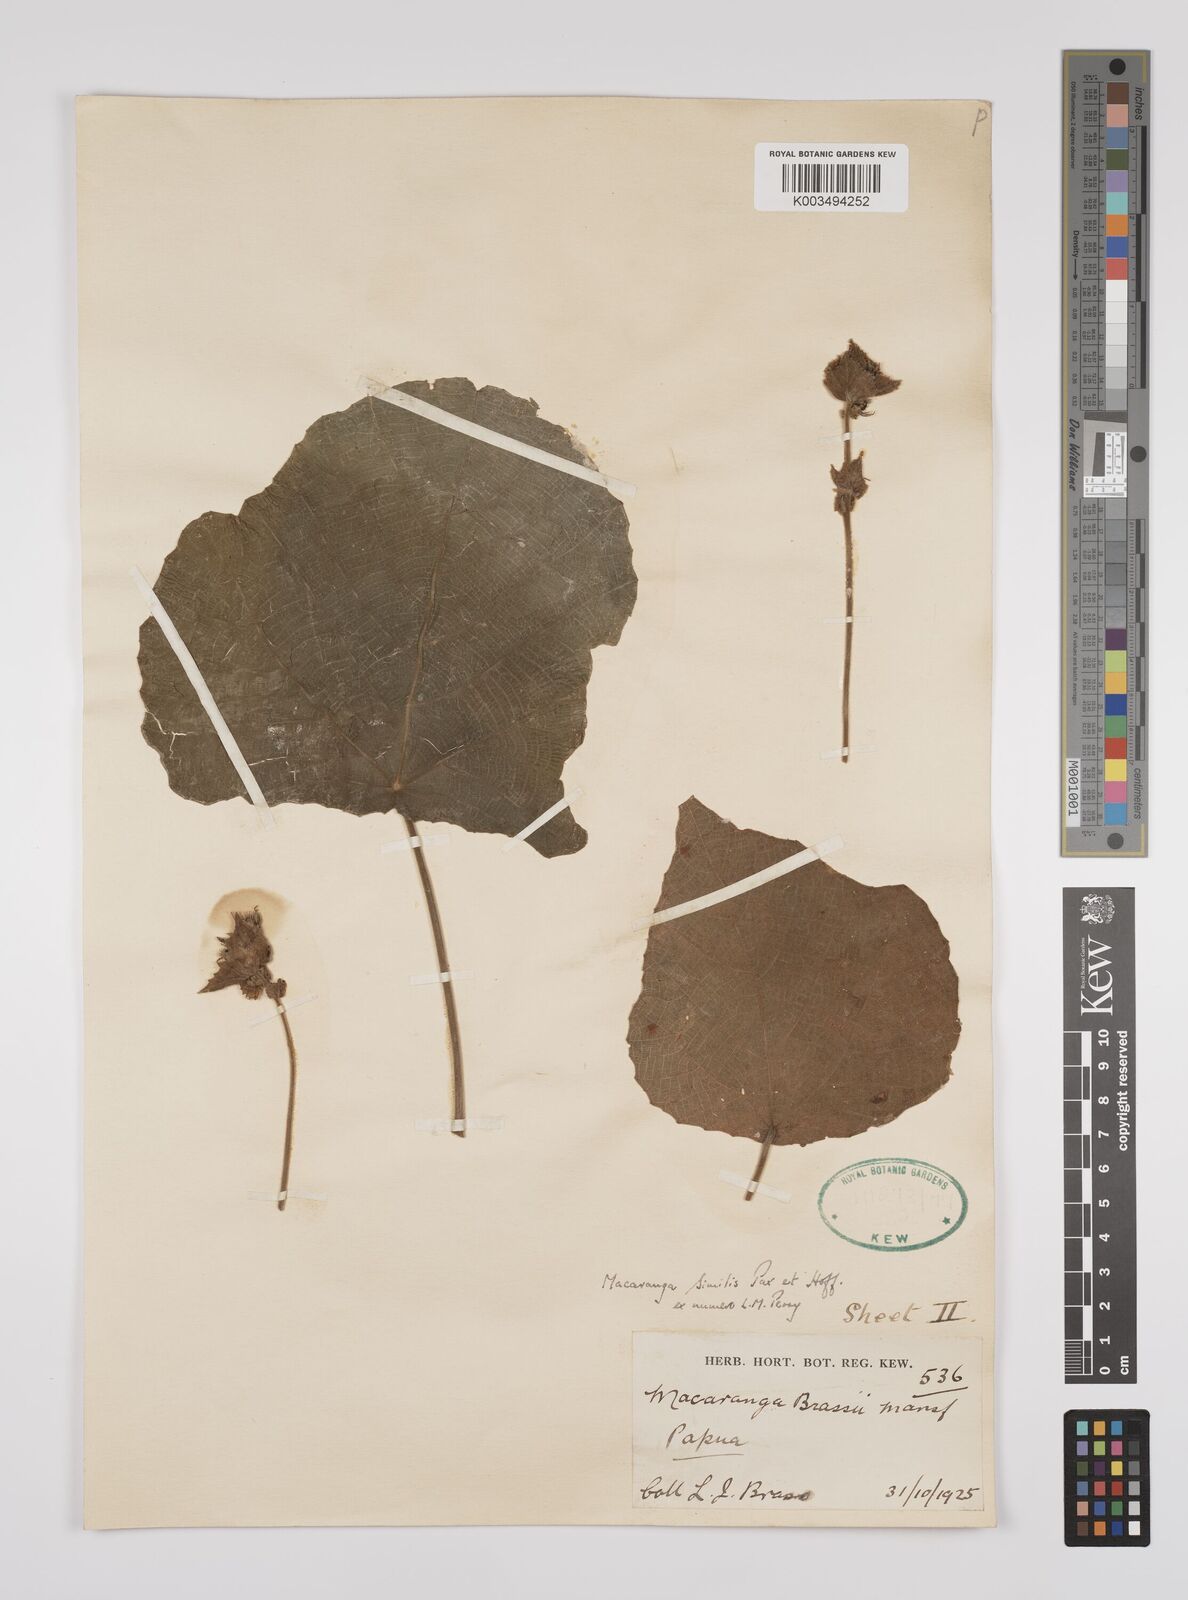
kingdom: Plantae
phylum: Tracheophyta
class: Magnoliopsida
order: Malpighiales
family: Euphorbiaceae
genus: Macaranga
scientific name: Macaranga similis
